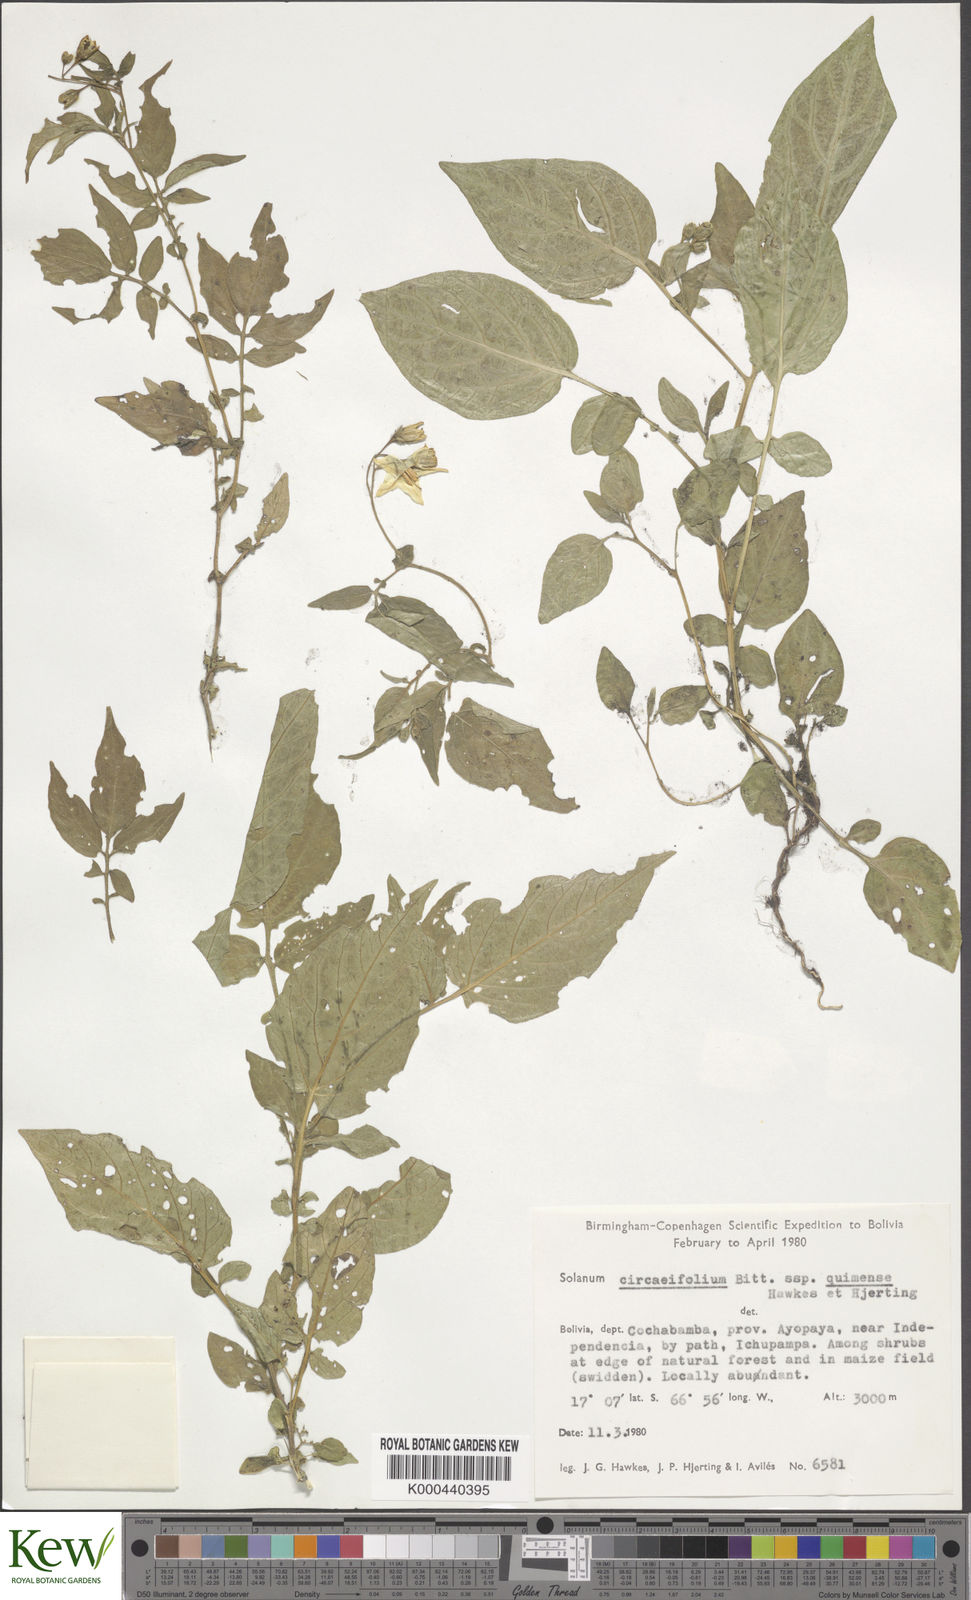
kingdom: Plantae
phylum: Tracheophyta
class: Magnoliopsida
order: Solanales
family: Solanaceae
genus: Solanum
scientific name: Solanum stipuloideum
